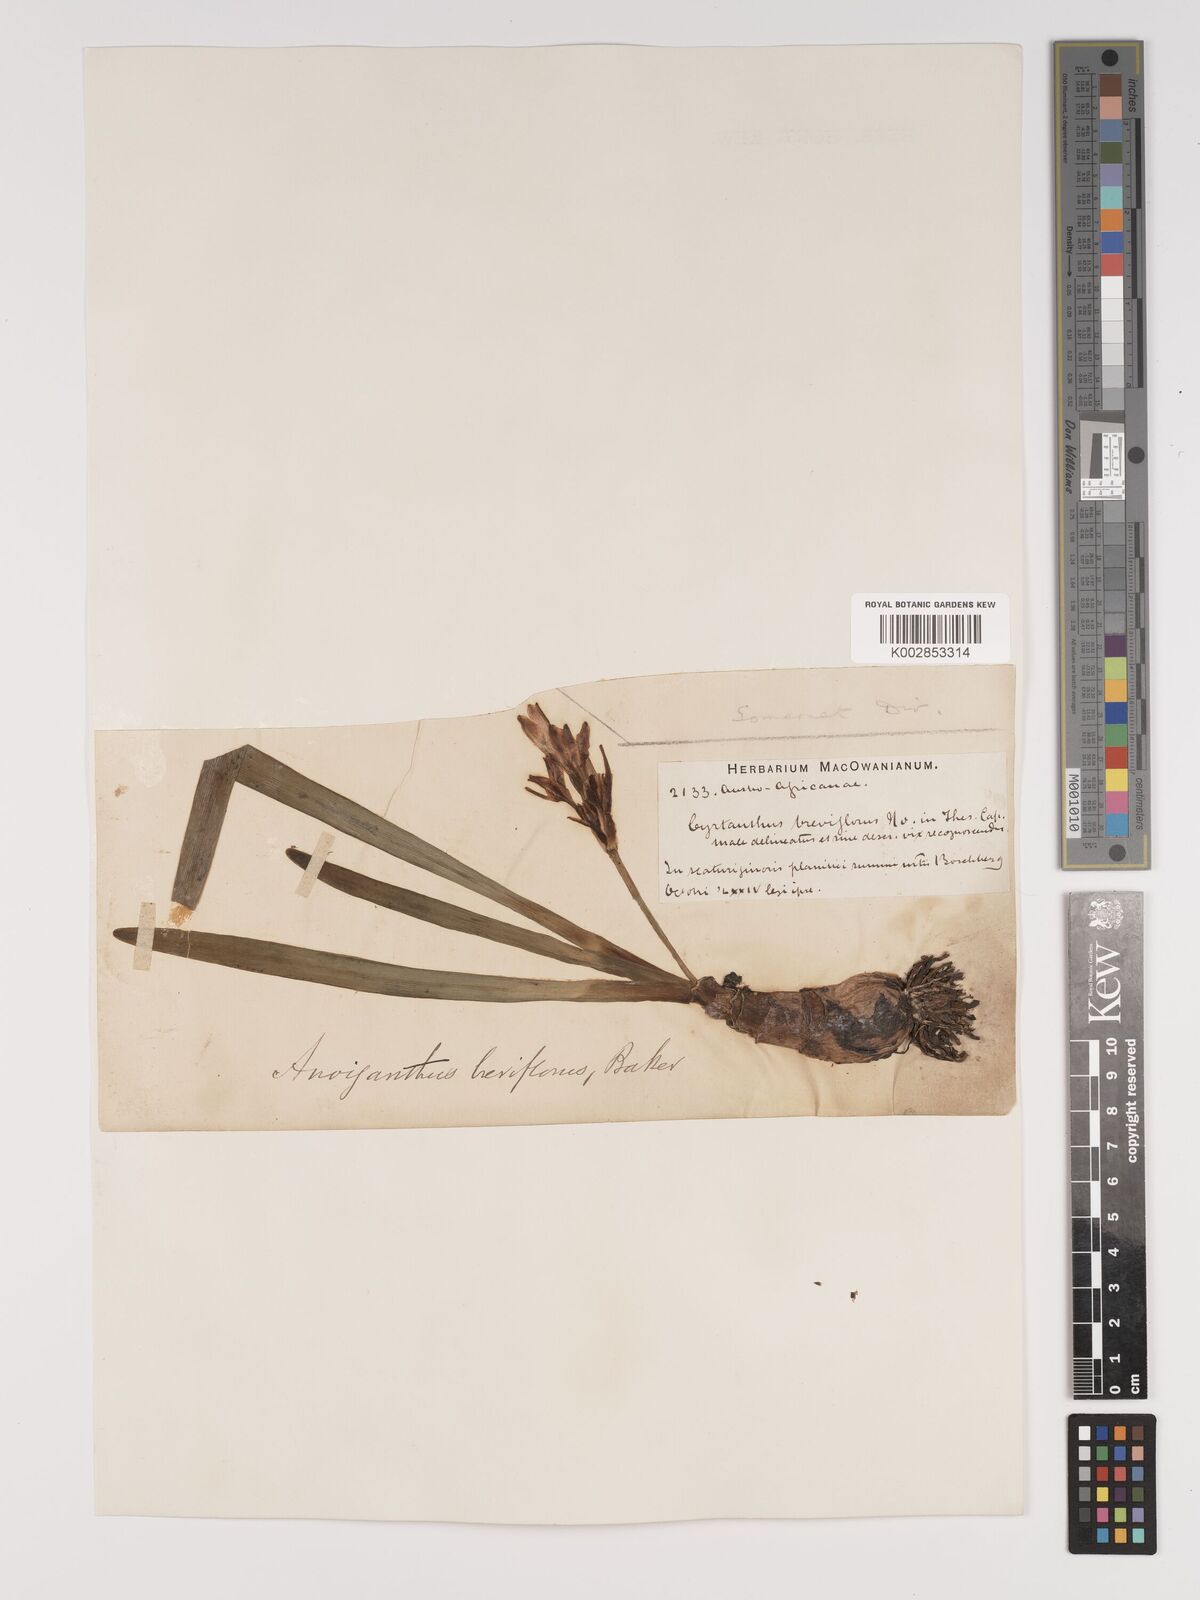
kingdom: Plantae
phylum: Tracheophyta
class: Liliopsida
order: Asparagales
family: Amaryllidaceae
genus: Cyrtanthus
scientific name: Cyrtanthus breviflorus
